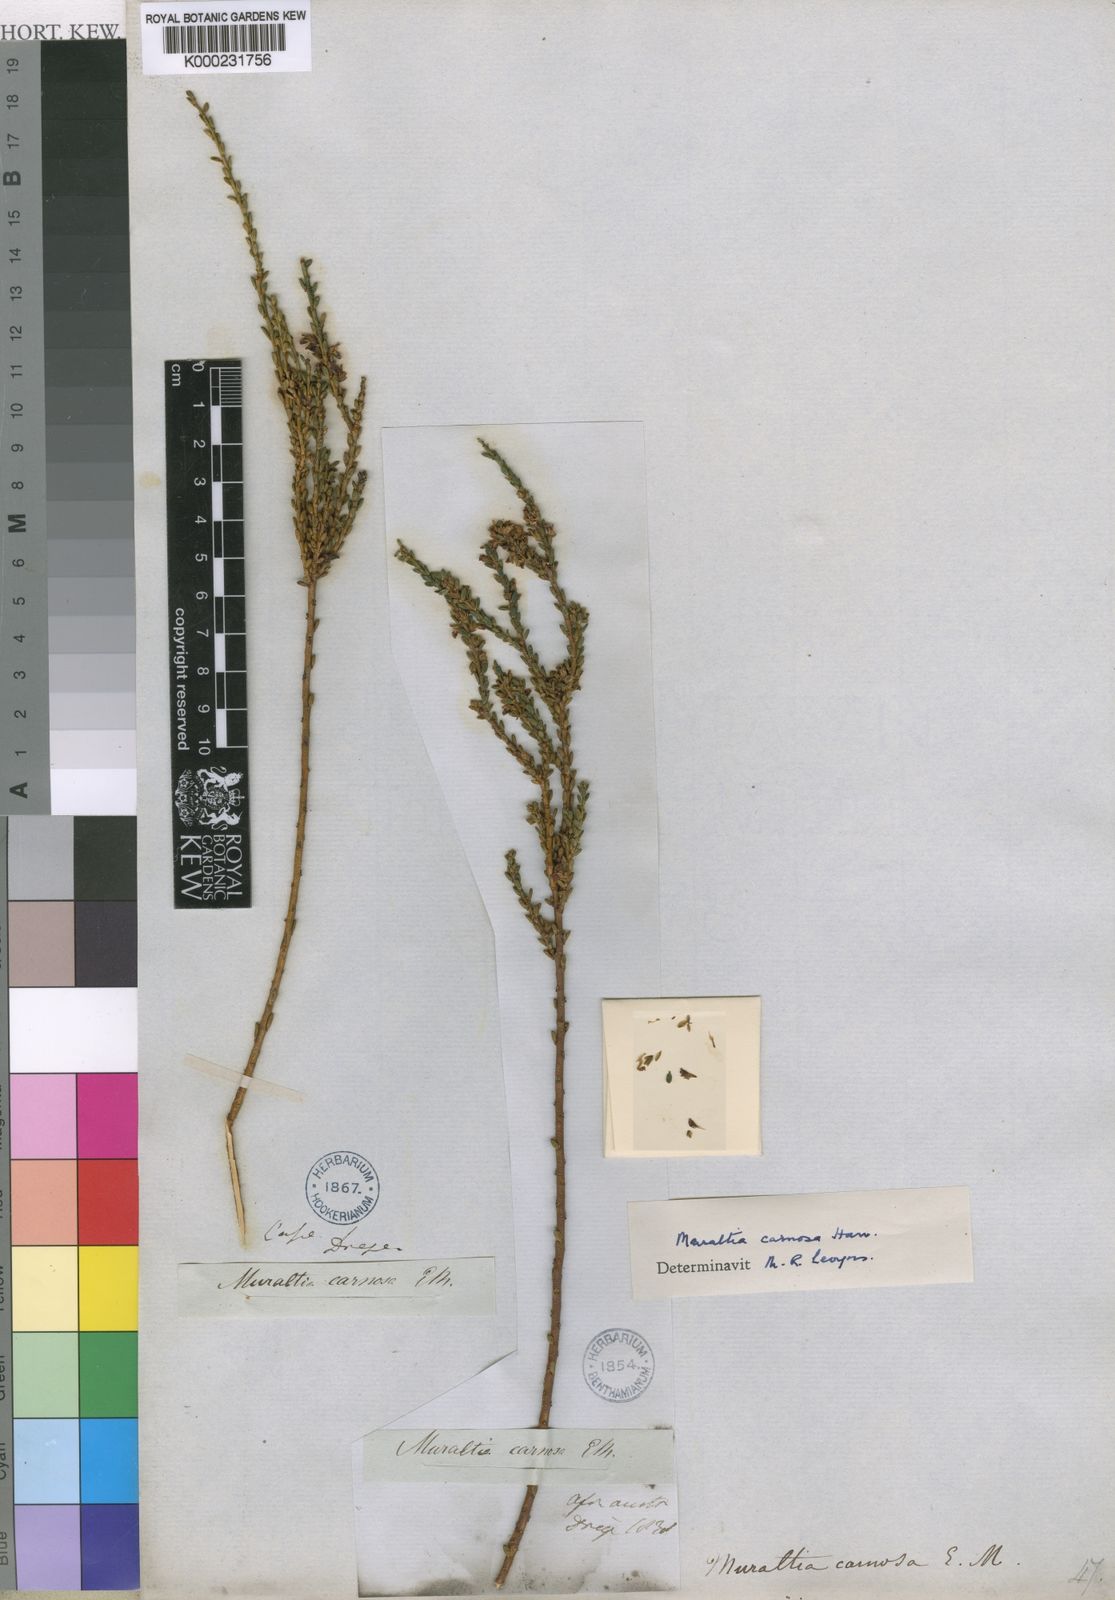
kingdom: Plantae
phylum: Tracheophyta
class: Magnoliopsida
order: Fabales
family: Polygalaceae
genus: Muraltia
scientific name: Muraltia carnosa
